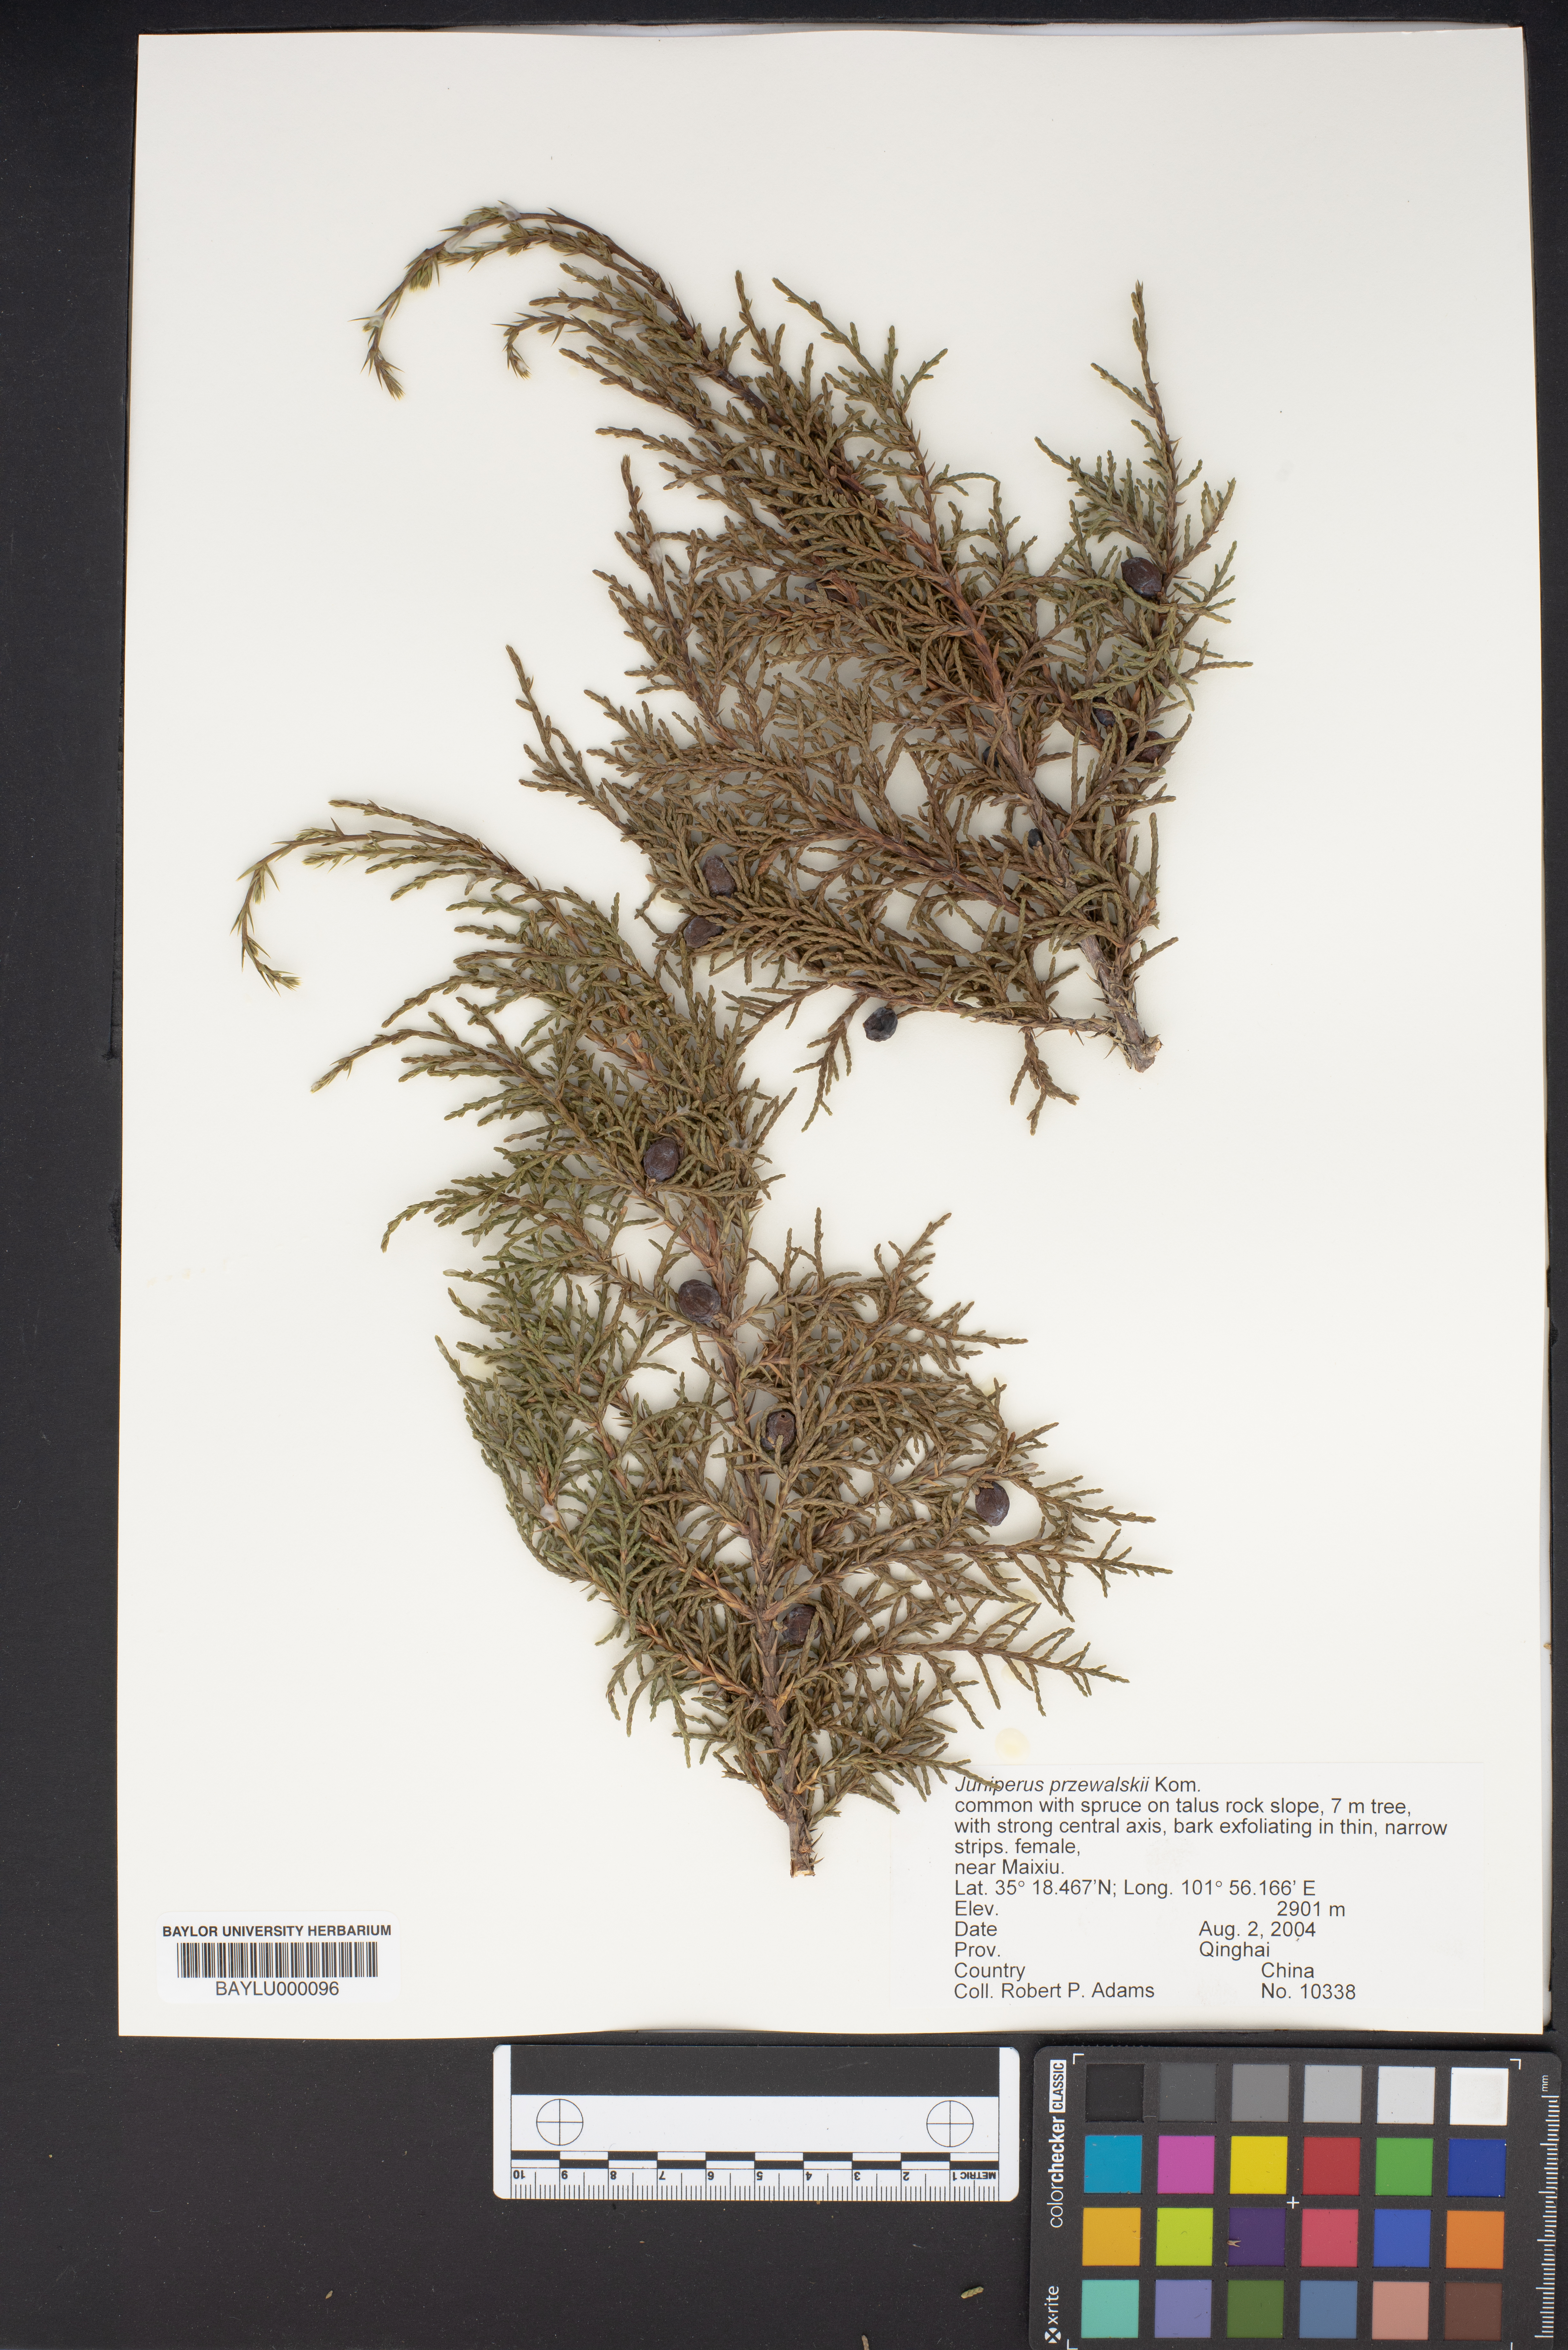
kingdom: Plantae
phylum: Tracheophyta
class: Pinopsida
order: Pinales
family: Cupressaceae
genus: Juniperus
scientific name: Juniperus
